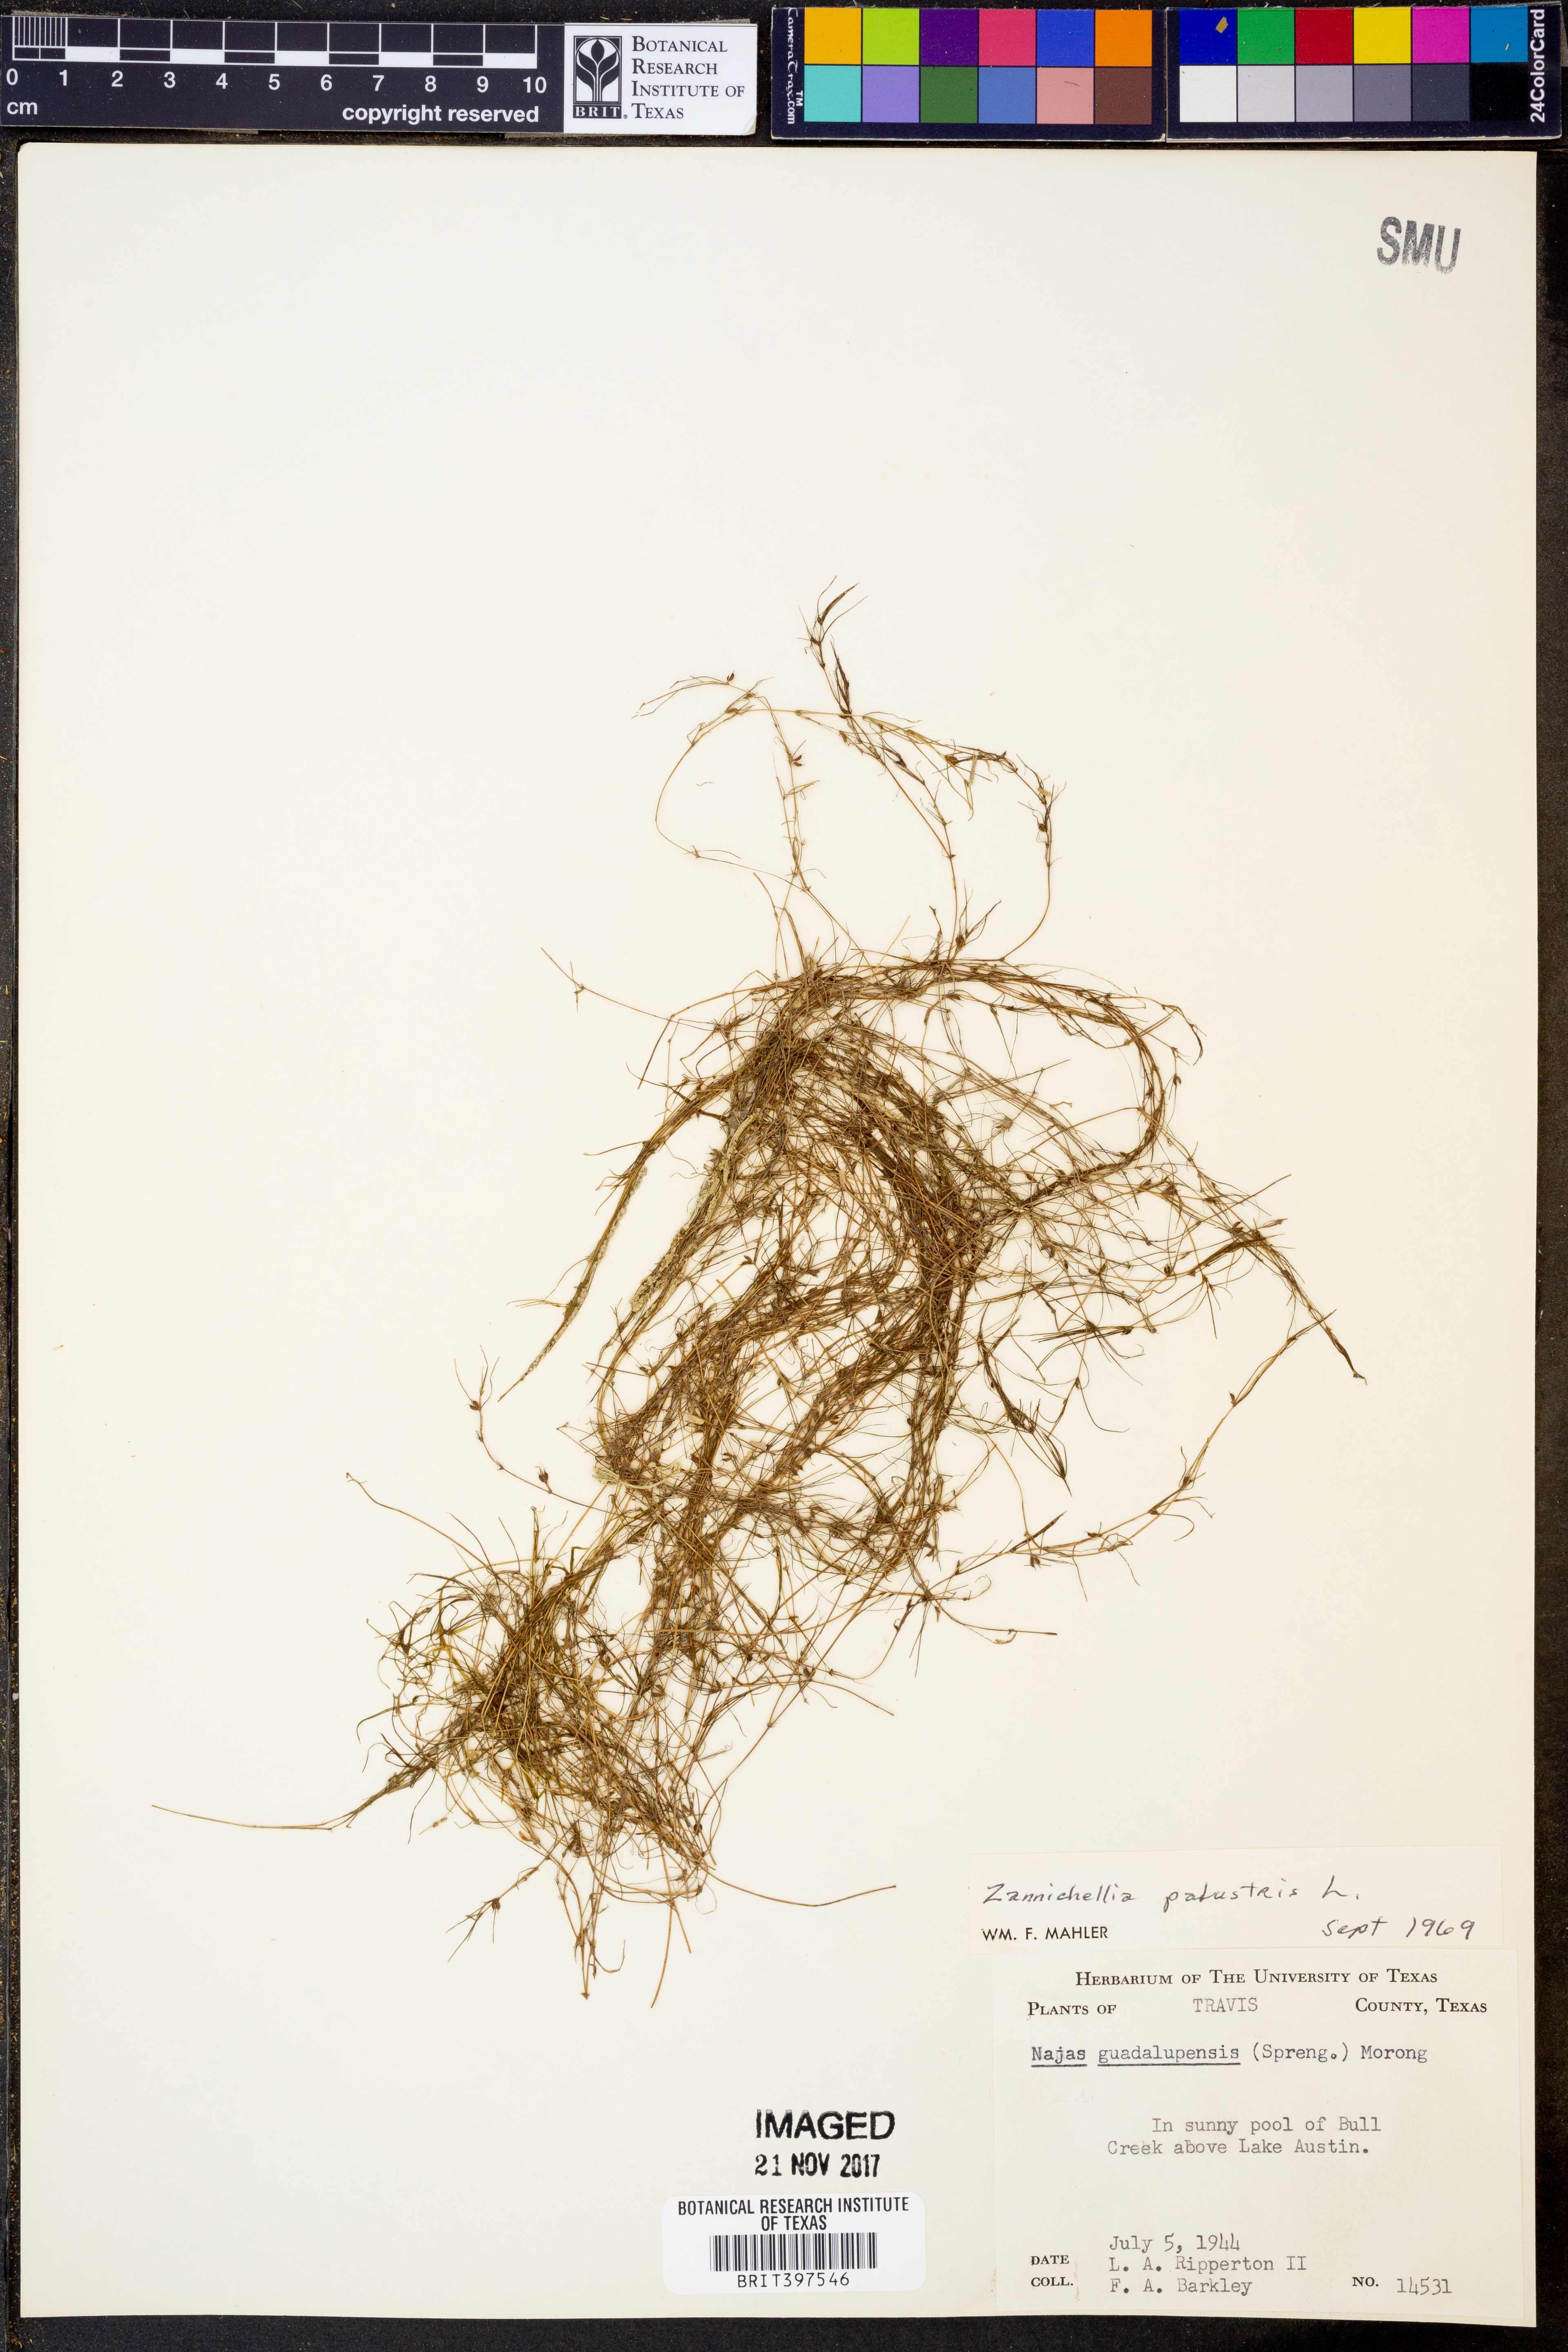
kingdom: Plantae
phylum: Tracheophyta
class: Liliopsida
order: Alismatales
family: Potamogetonaceae
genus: Zannichellia
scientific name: Zannichellia palustris
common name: Horned pondweed
